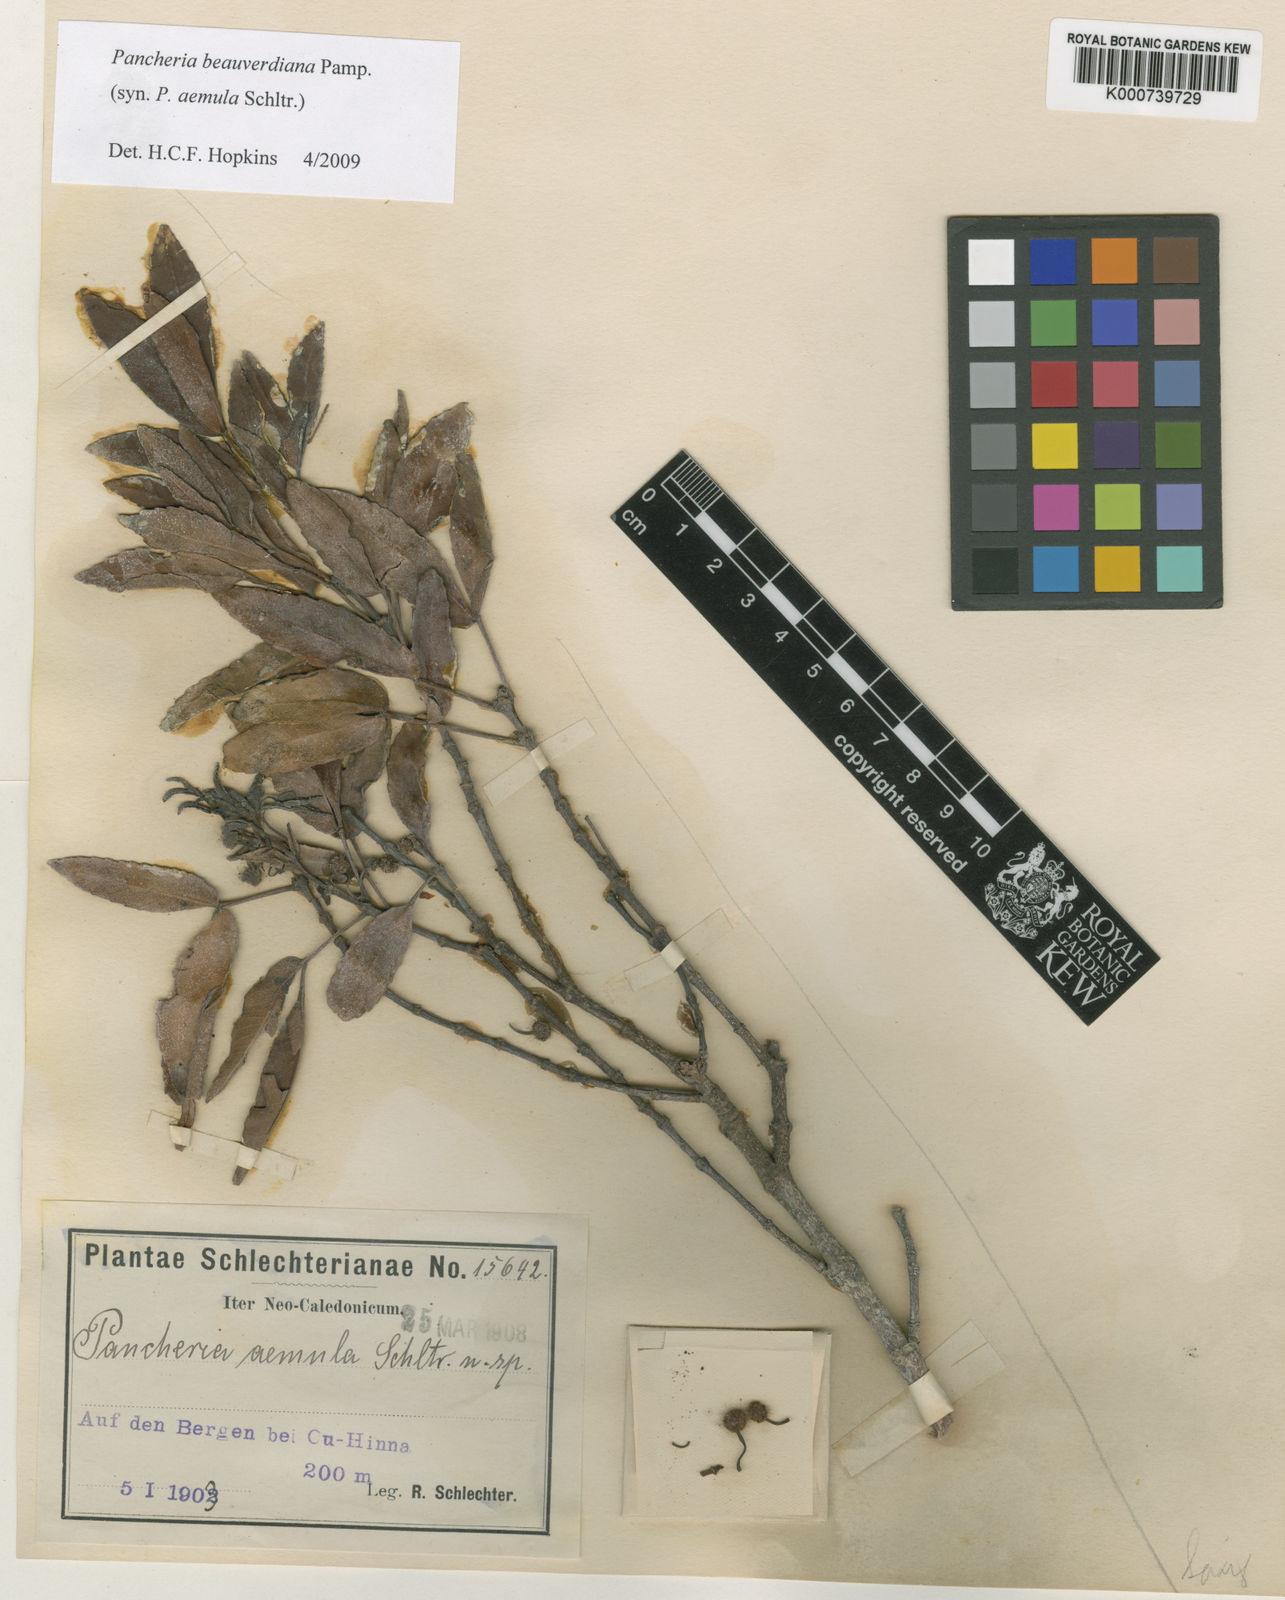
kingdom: Plantae
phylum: Tracheophyta
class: Magnoliopsida
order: Oxalidales
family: Cunoniaceae
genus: Pancheria
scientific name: Pancheria beauverdiana
